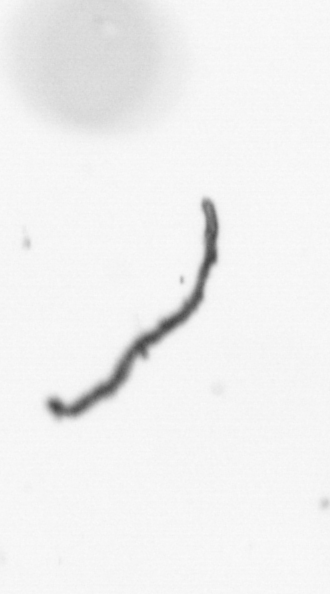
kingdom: Chromista
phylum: Ochrophyta
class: Bacillariophyceae
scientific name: Bacillariophyceae
